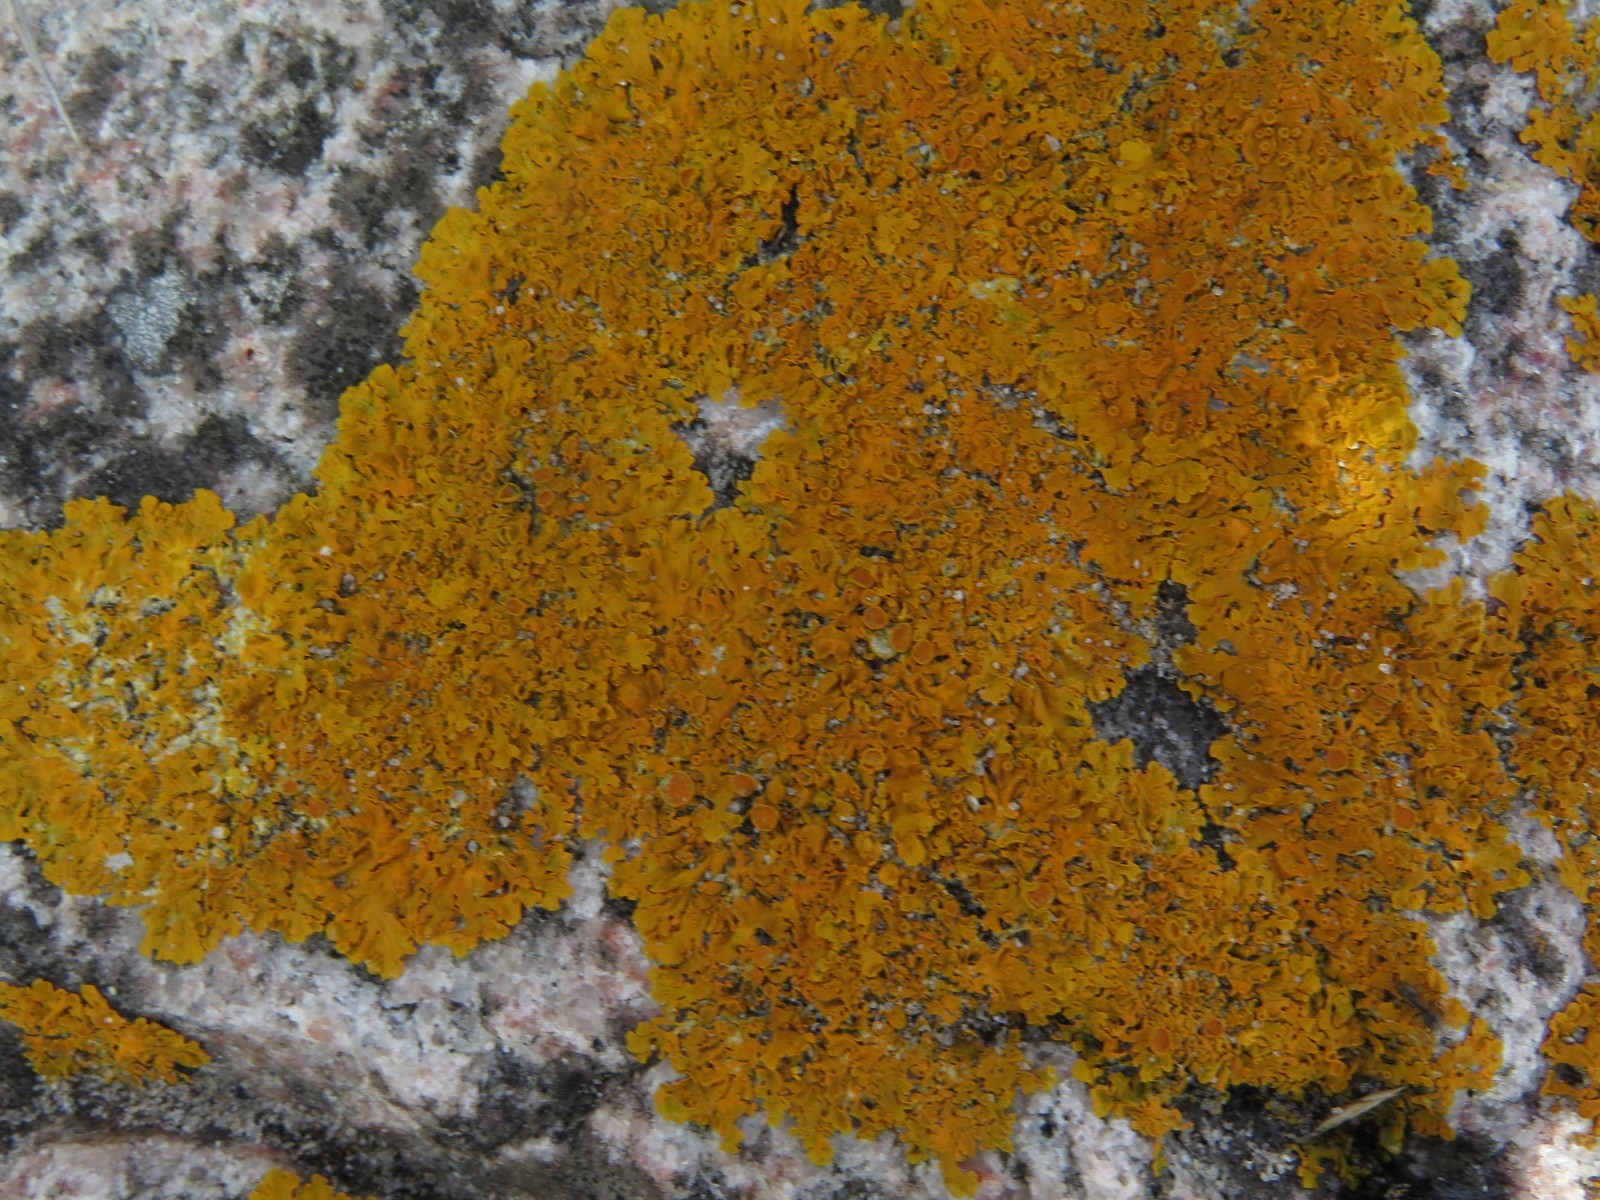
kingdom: Fungi
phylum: Ascomycota
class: Lecanoromycetes
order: Teloschistales
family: Teloschistaceae
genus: Xanthoria
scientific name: Xanthoria parietina
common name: almindelig væggelav
